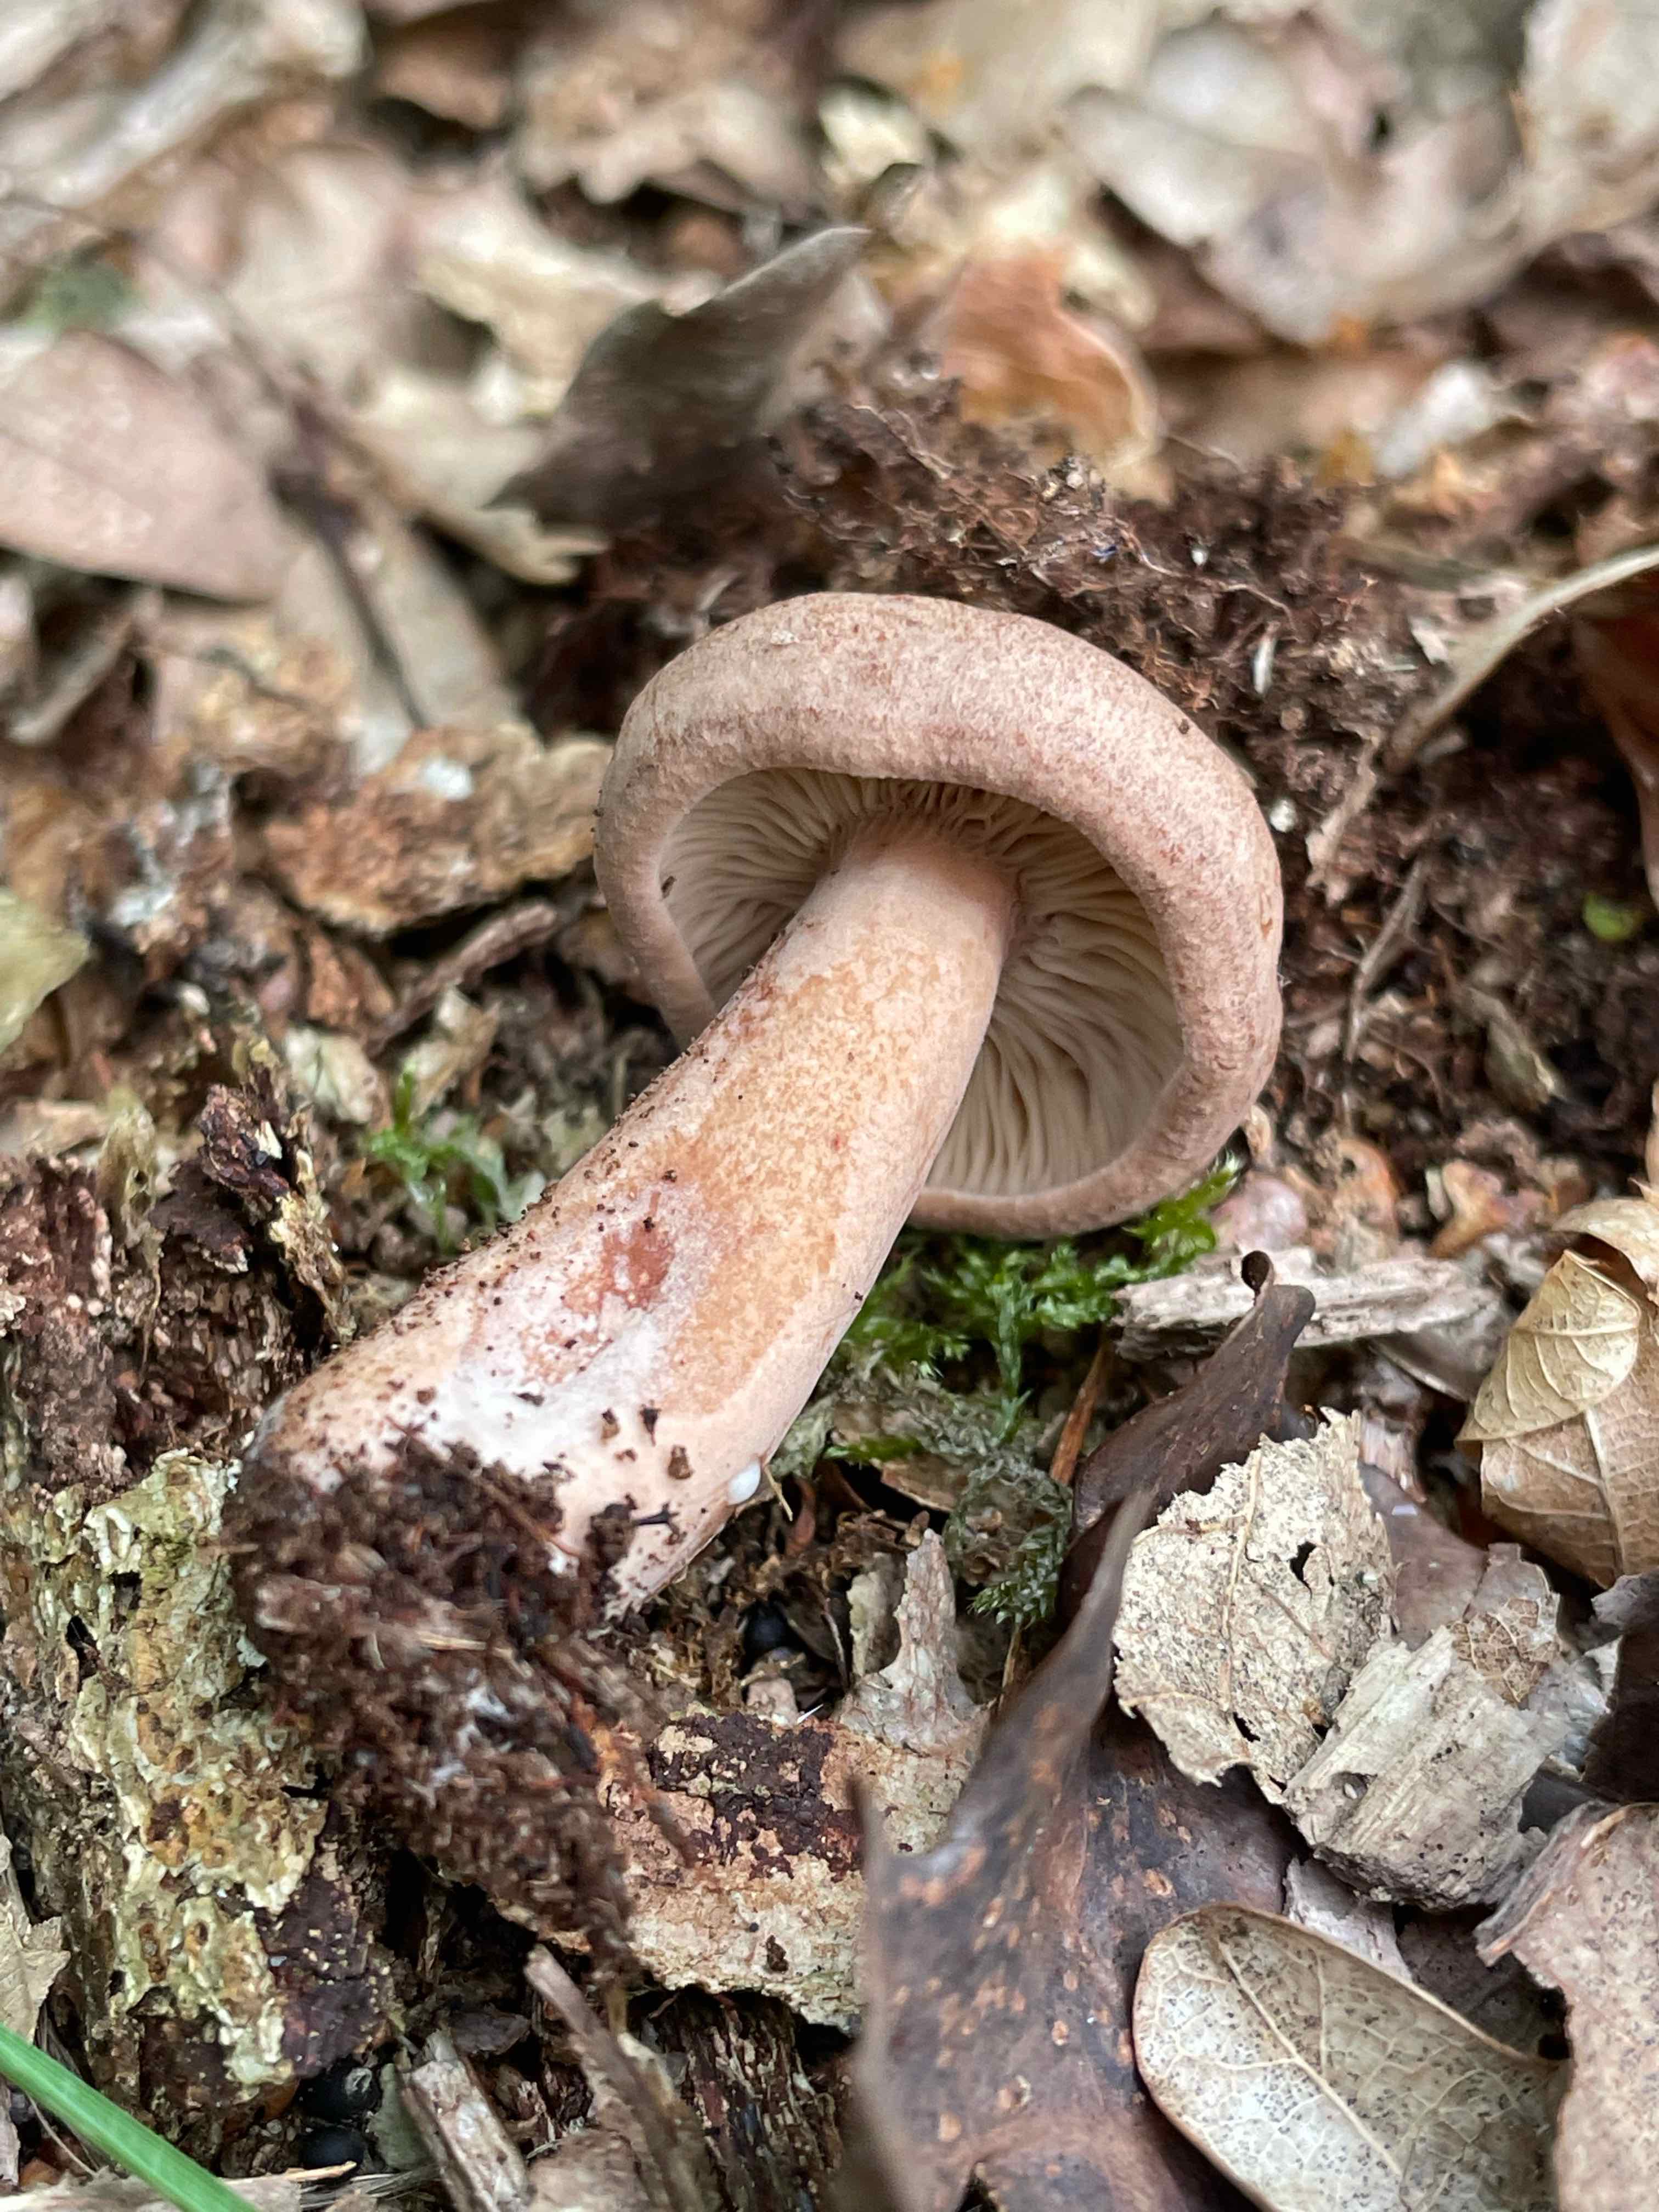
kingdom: Fungi
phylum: Basidiomycota
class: Agaricomycetes
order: Russulales
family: Russulaceae
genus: Lactarius
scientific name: Lactarius quietus
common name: ege-mælkehat
